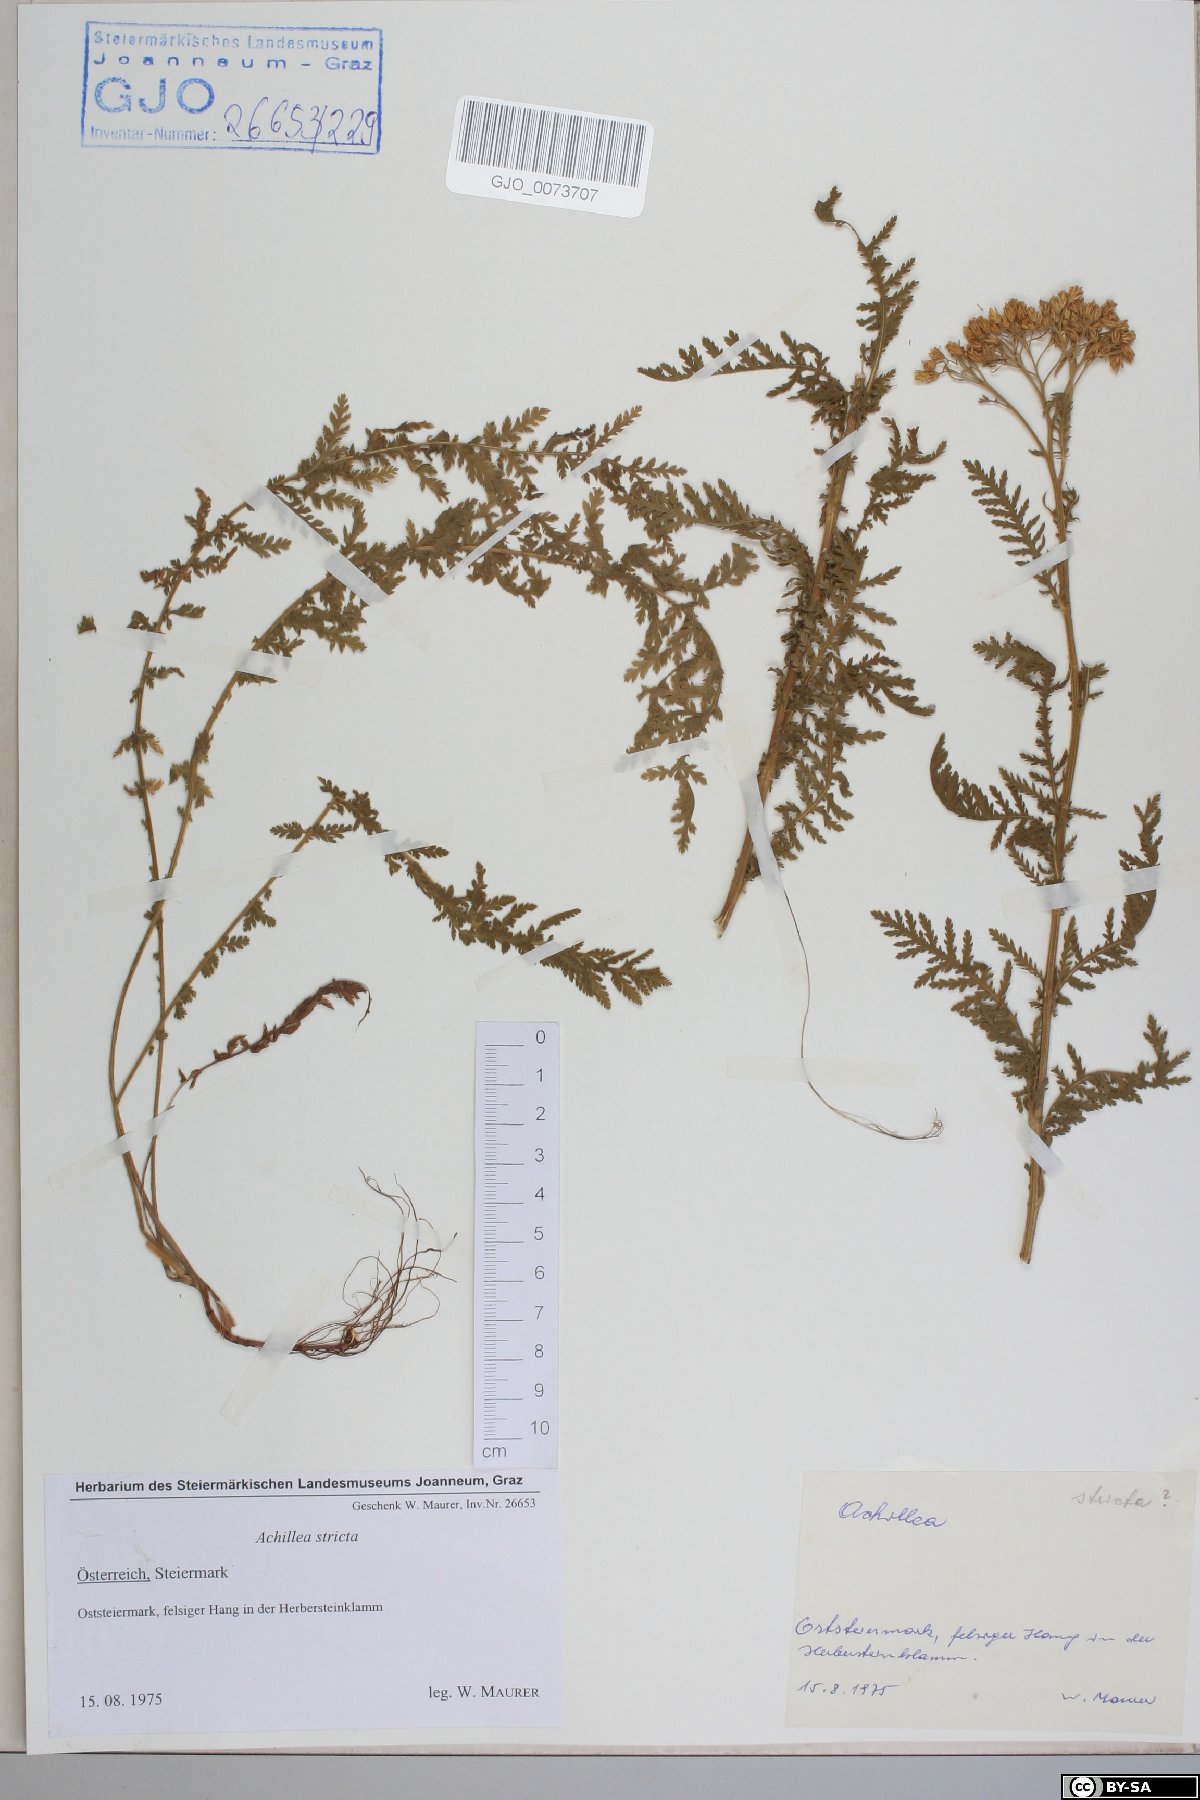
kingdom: Plantae
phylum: Tracheophyta
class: Magnoliopsida
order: Asterales
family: Asteraceae
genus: Achillea
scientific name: Achillea distans
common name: Tall yarrow
